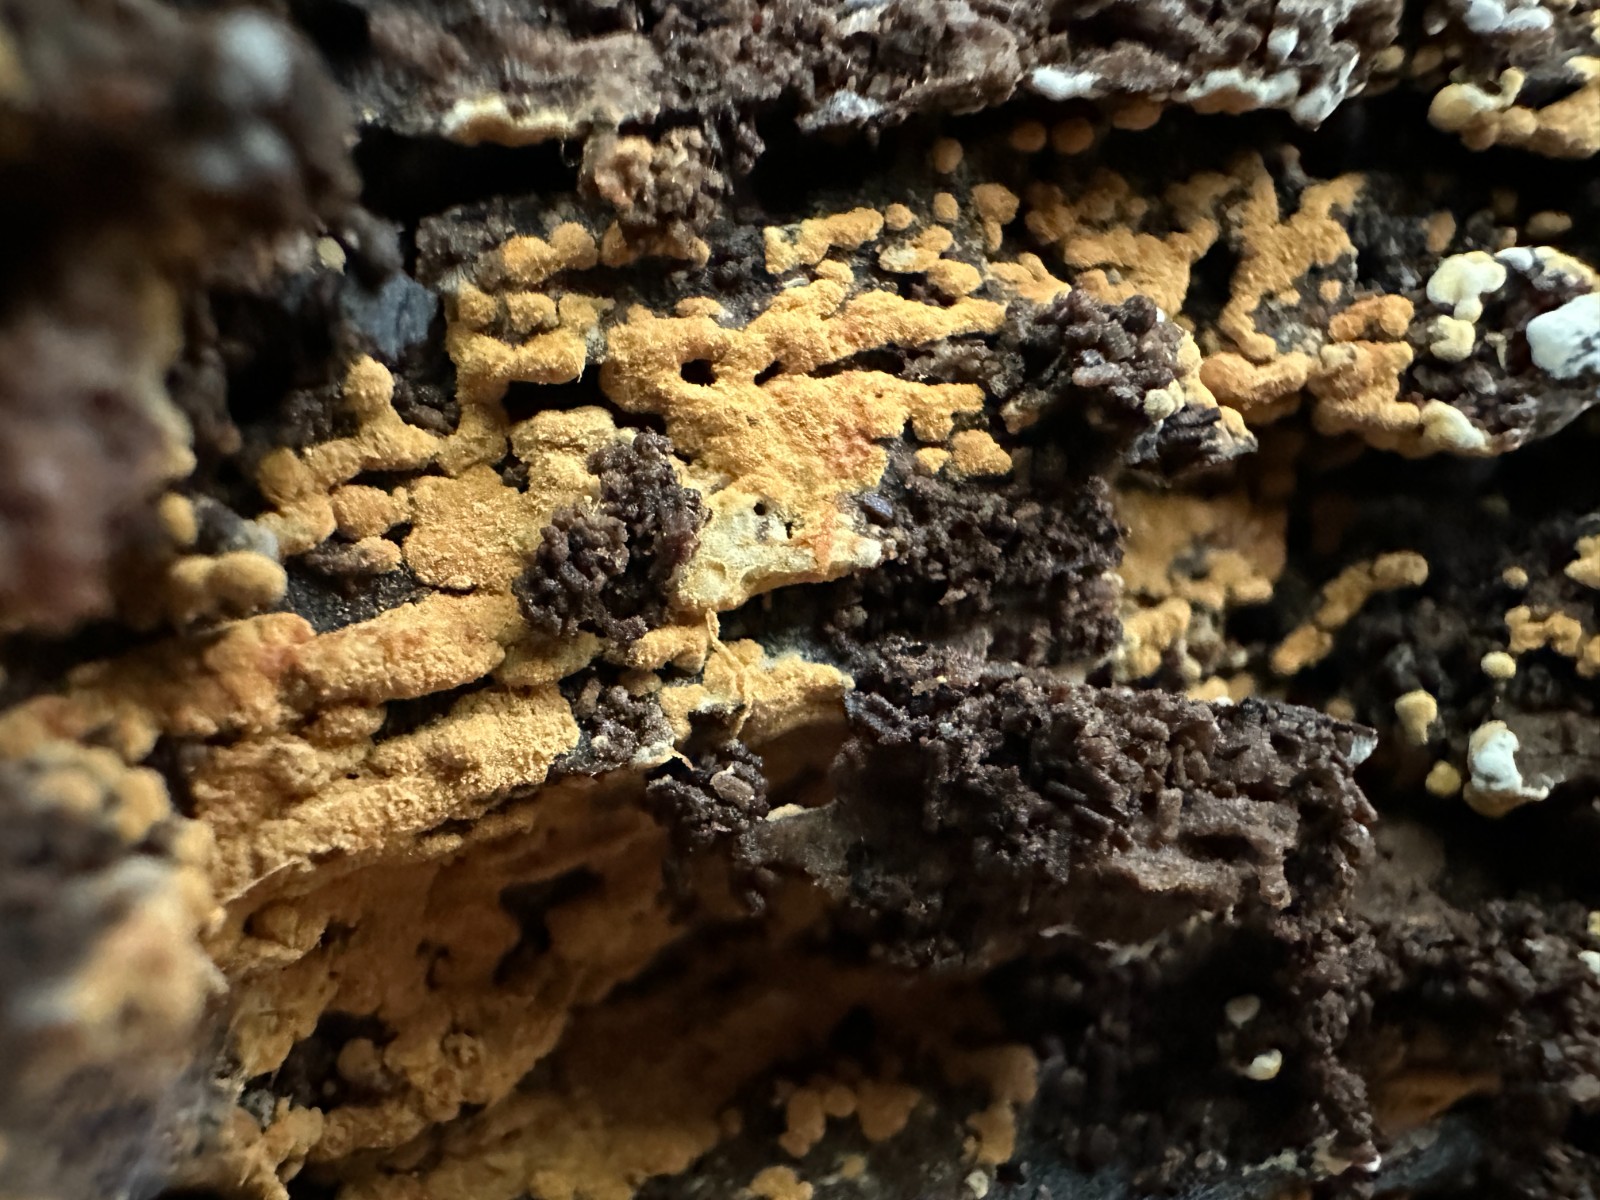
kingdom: Fungi
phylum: Basidiomycota
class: Agaricomycetes
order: Cantharellales
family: Botryobasidiaceae
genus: Botryobasidium
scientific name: Botryobasidium aureum
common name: gylden spindhinde
